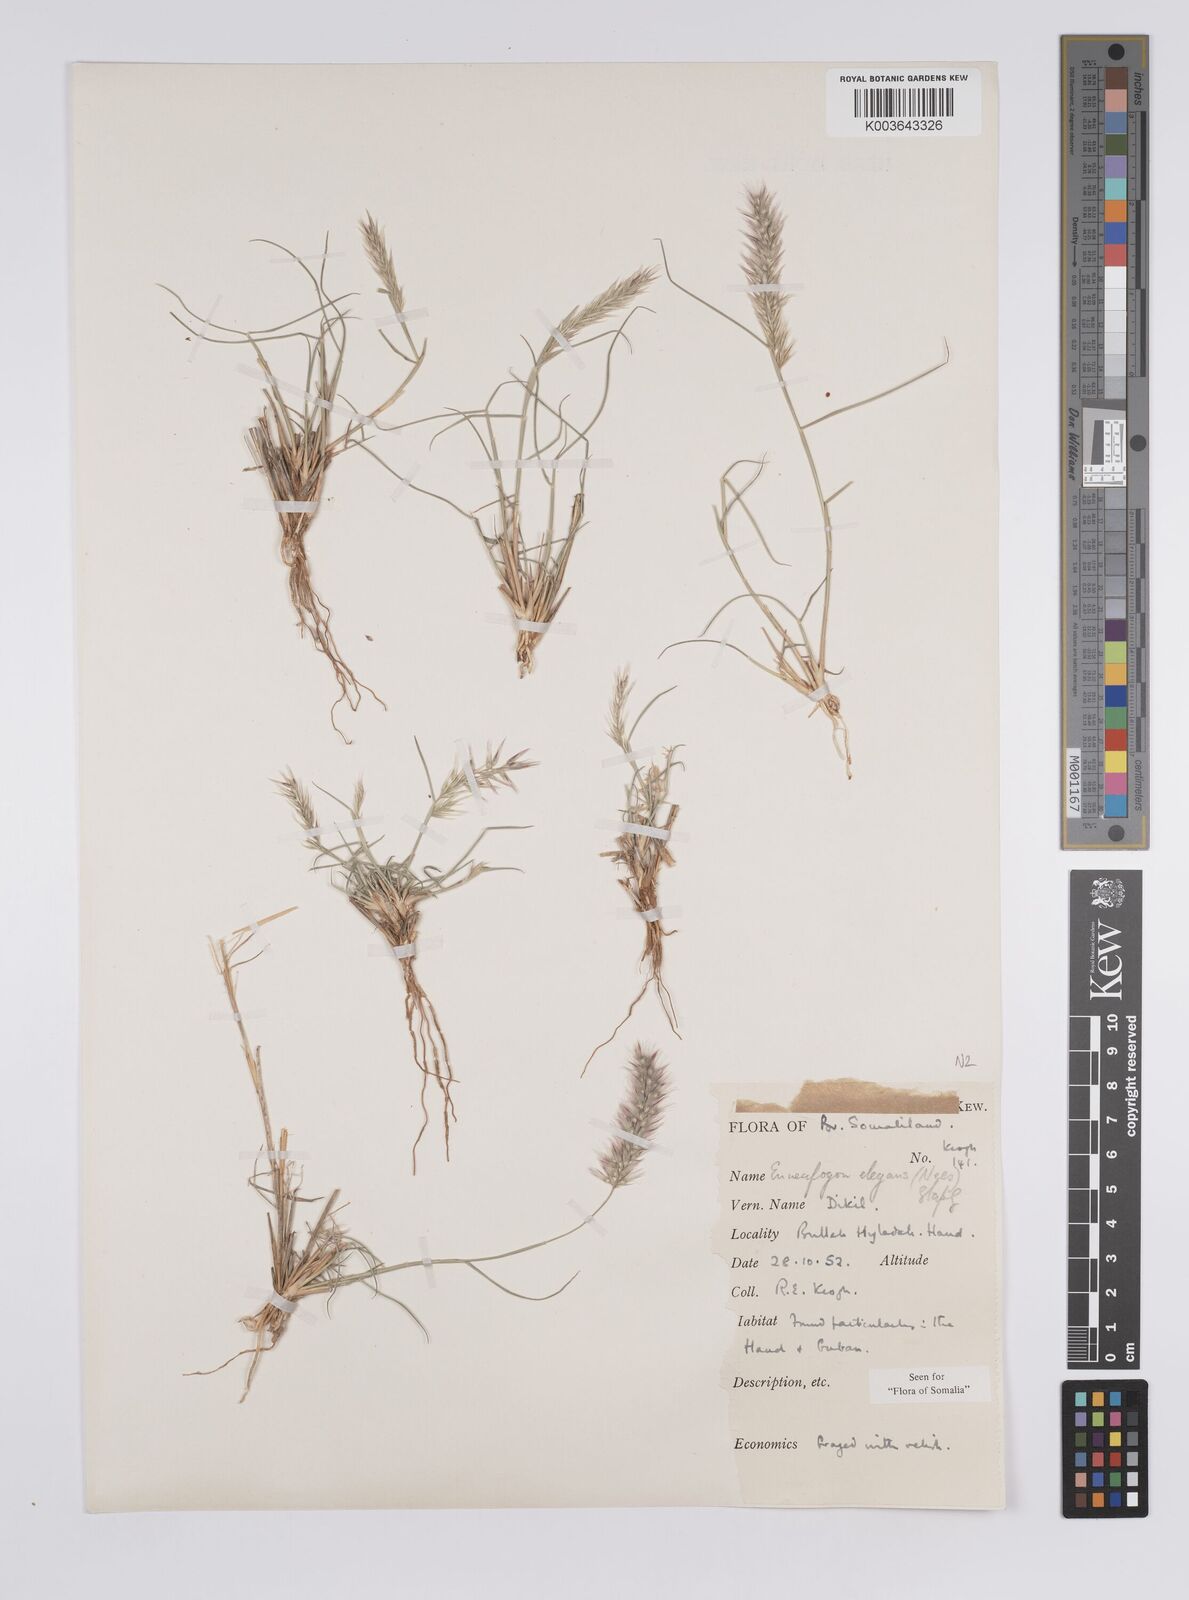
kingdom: Plantae
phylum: Tracheophyta
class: Liliopsida
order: Poales
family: Poaceae
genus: Enneapogon
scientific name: Enneapogon persicus
